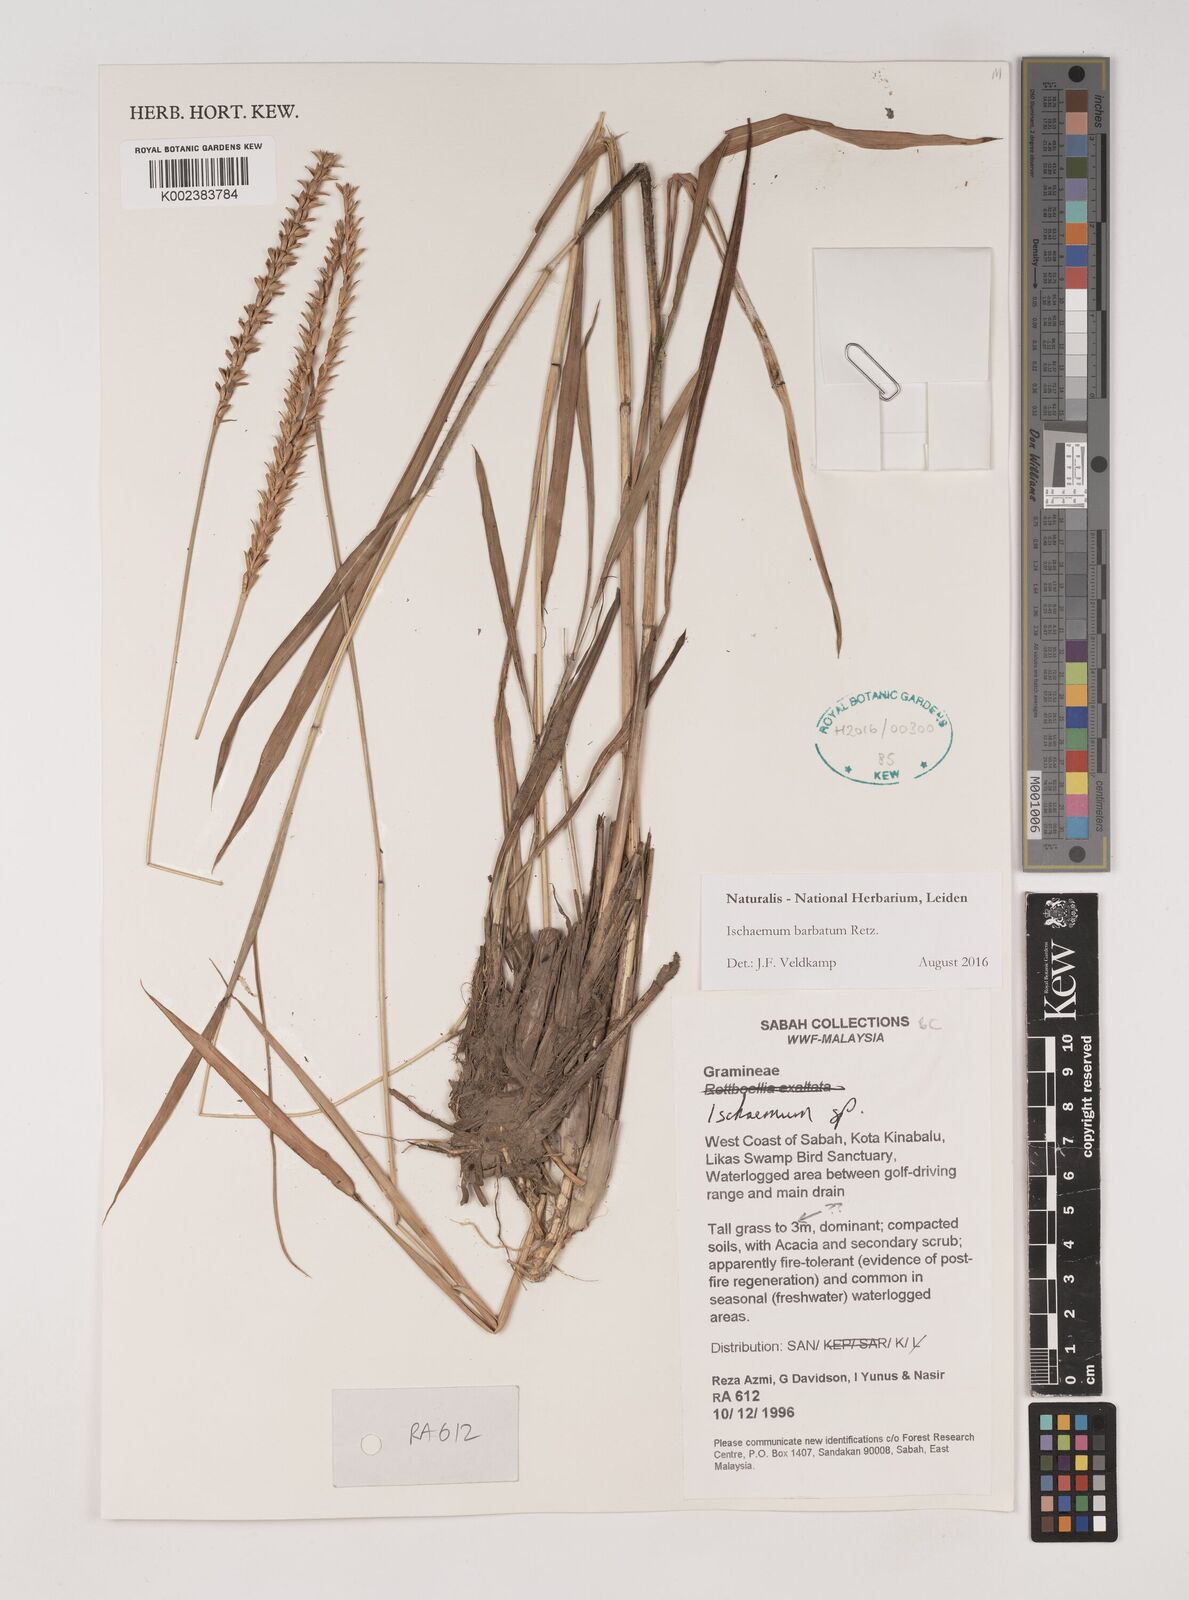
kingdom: Plantae
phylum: Tracheophyta
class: Liliopsida
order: Poales
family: Poaceae
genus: Ischaemum
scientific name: Ischaemum barbatum
